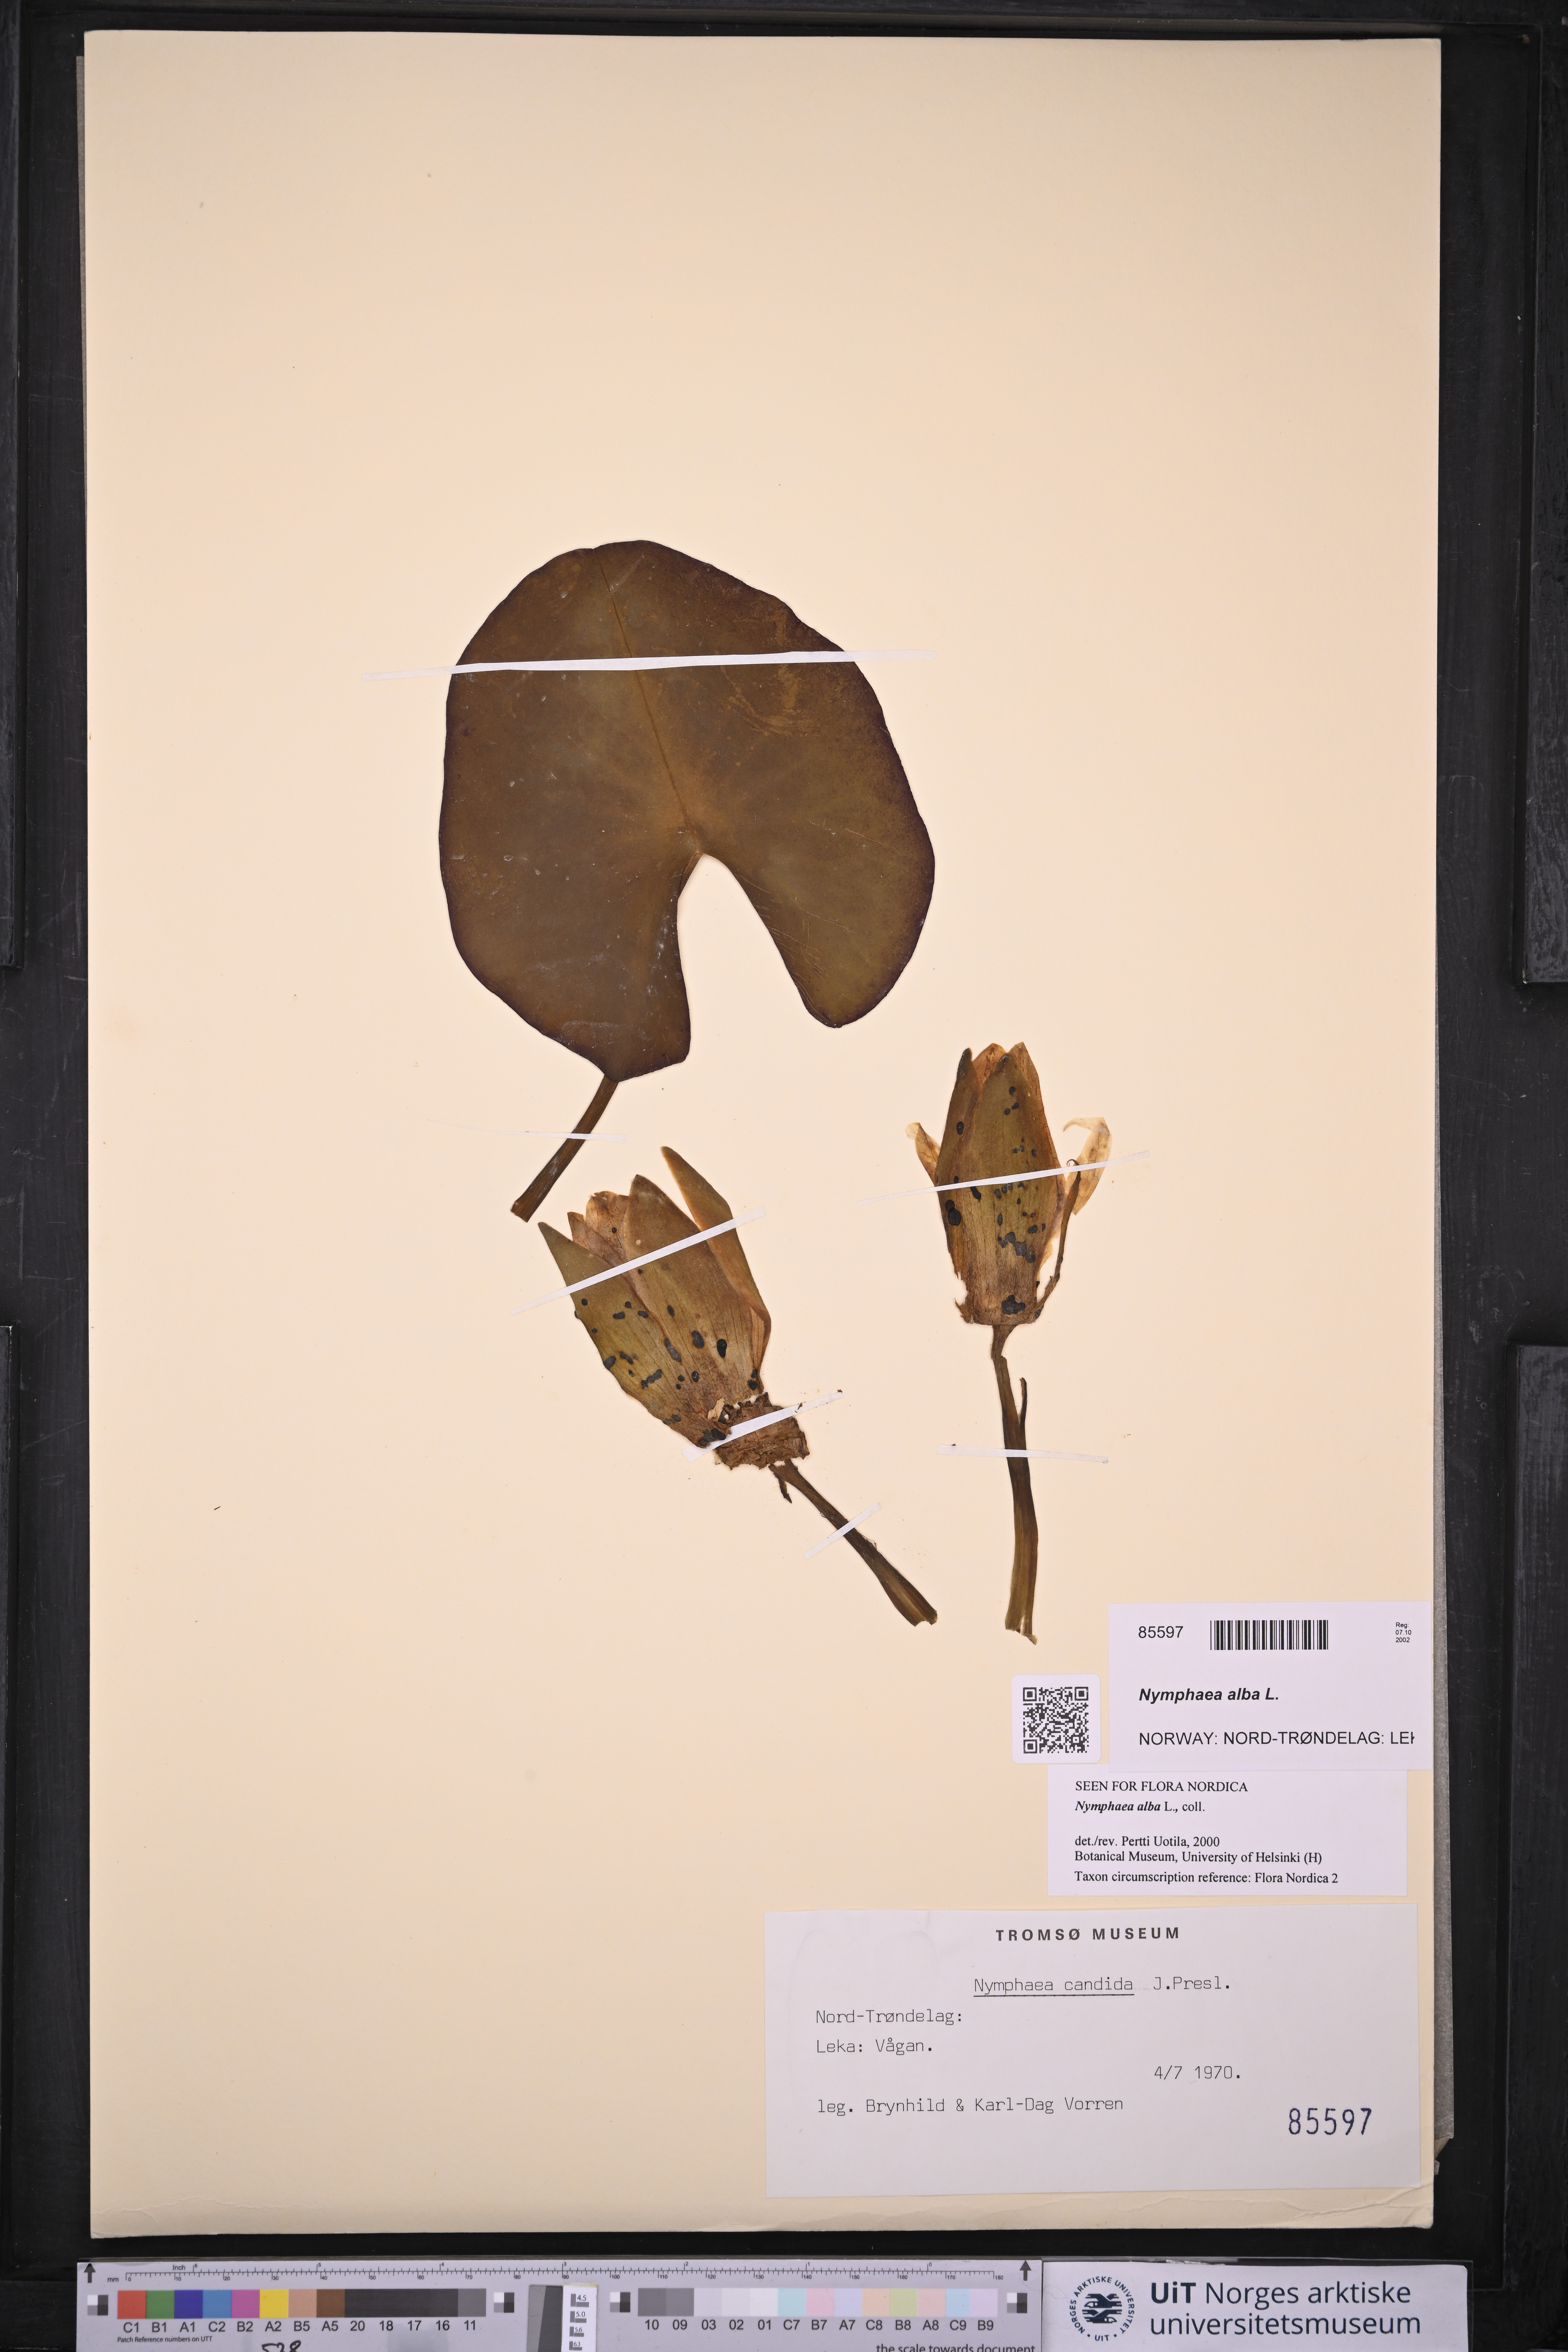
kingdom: Plantae
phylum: Tracheophyta
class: Magnoliopsida
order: Nymphaeales
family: Nymphaeaceae
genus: Nymphaea
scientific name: Nymphaea alba
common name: White water-lily
